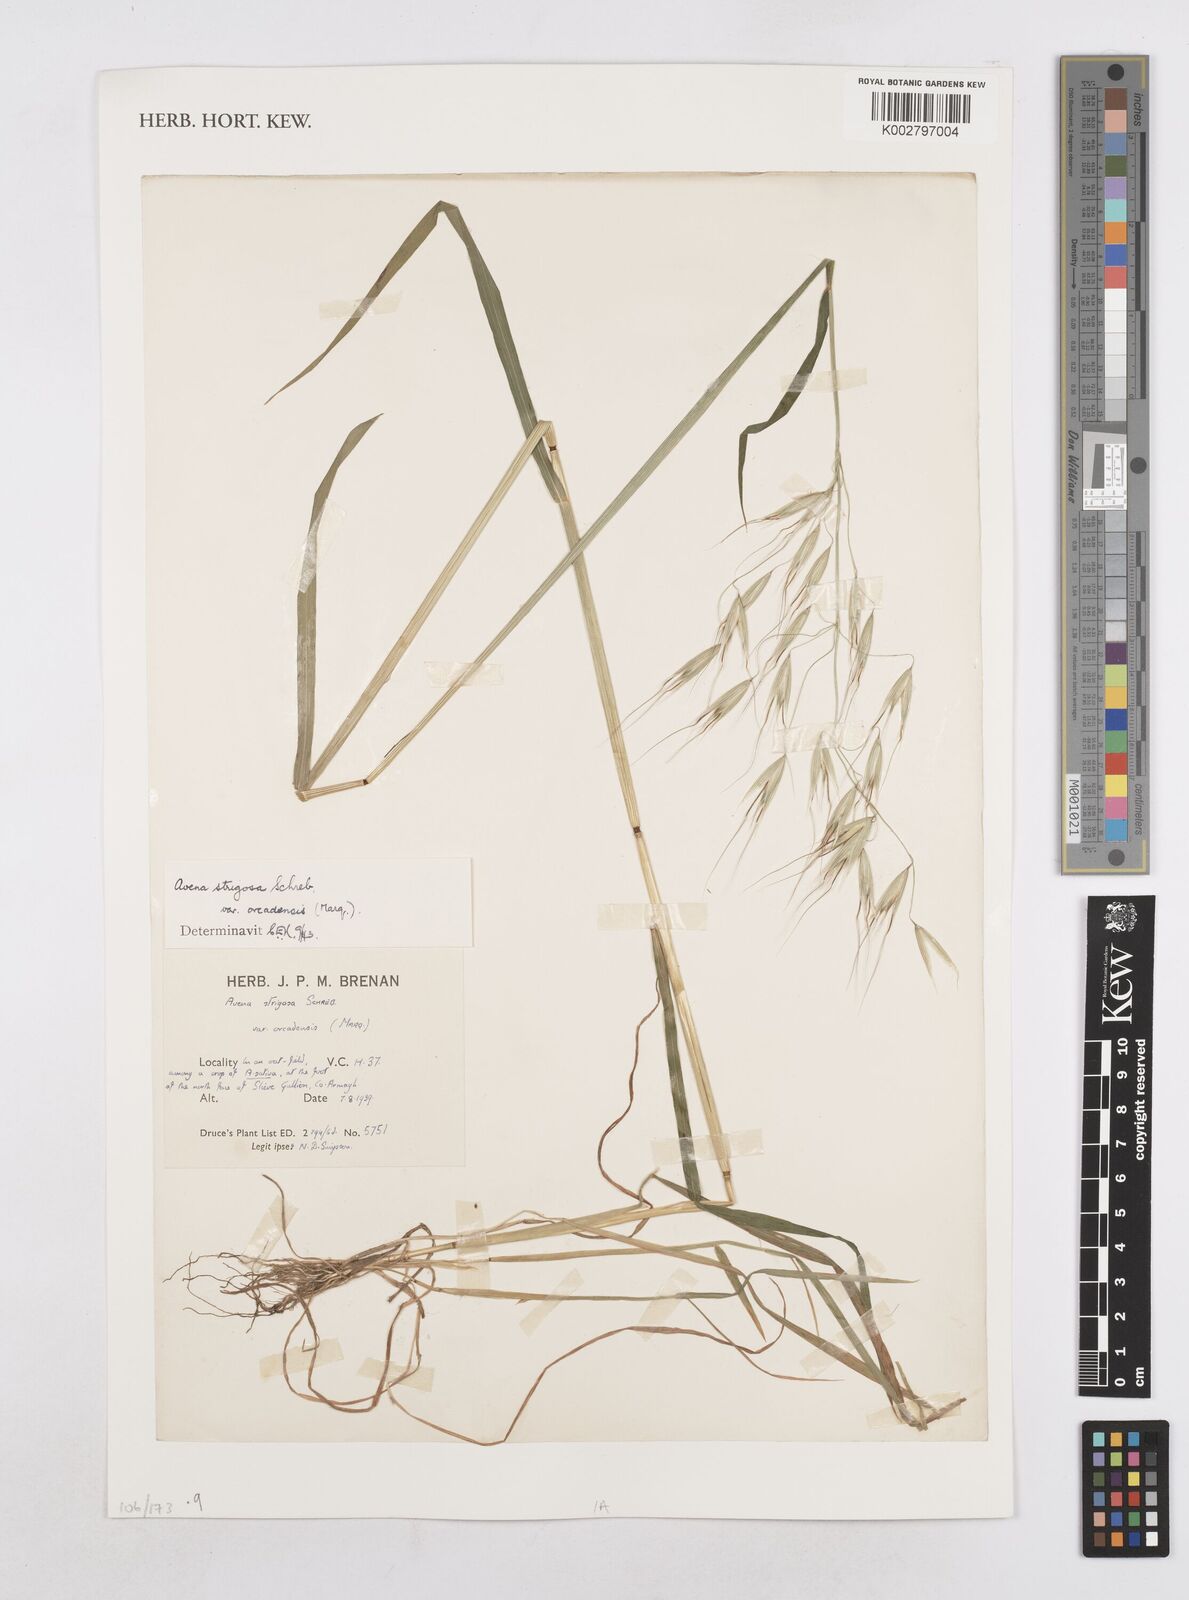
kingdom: Plantae
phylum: Tracheophyta
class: Liliopsida
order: Poales
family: Poaceae
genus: Avena
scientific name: Avena strigosa
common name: Bristle oat
